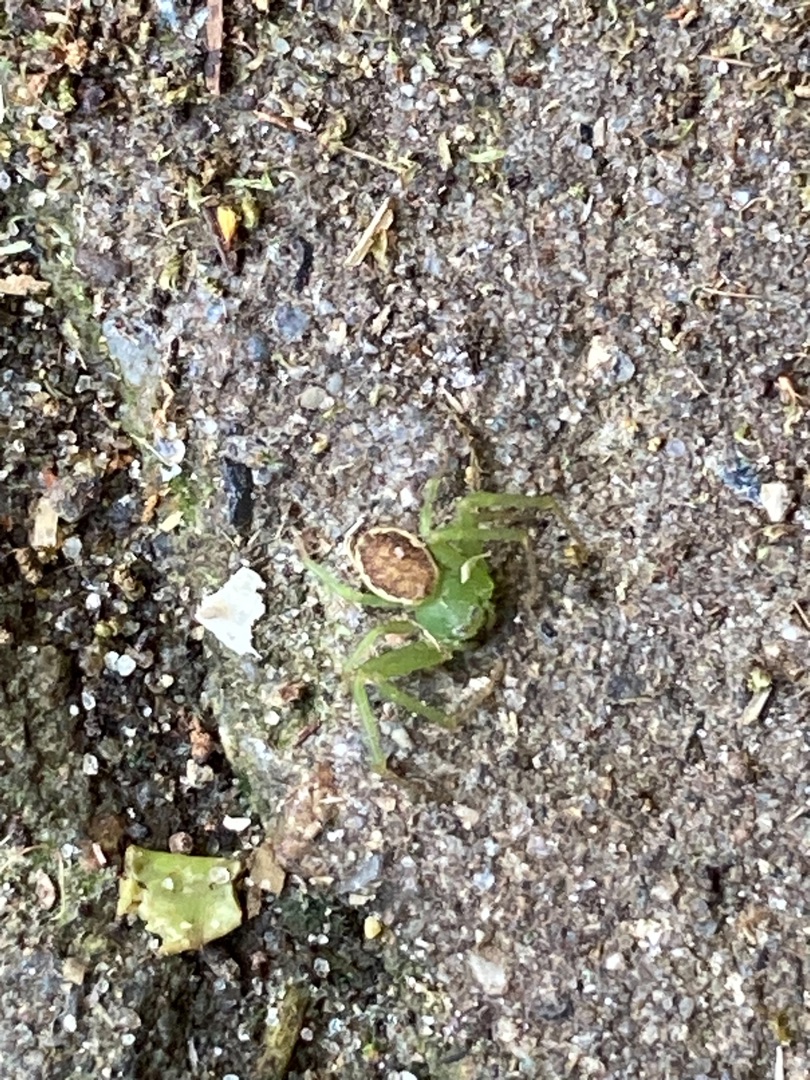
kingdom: Animalia
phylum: Arthropoda
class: Arachnida
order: Araneae
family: Thomisidae
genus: Diaea
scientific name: Diaea dorsata
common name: Grøn krabbeedderkop
